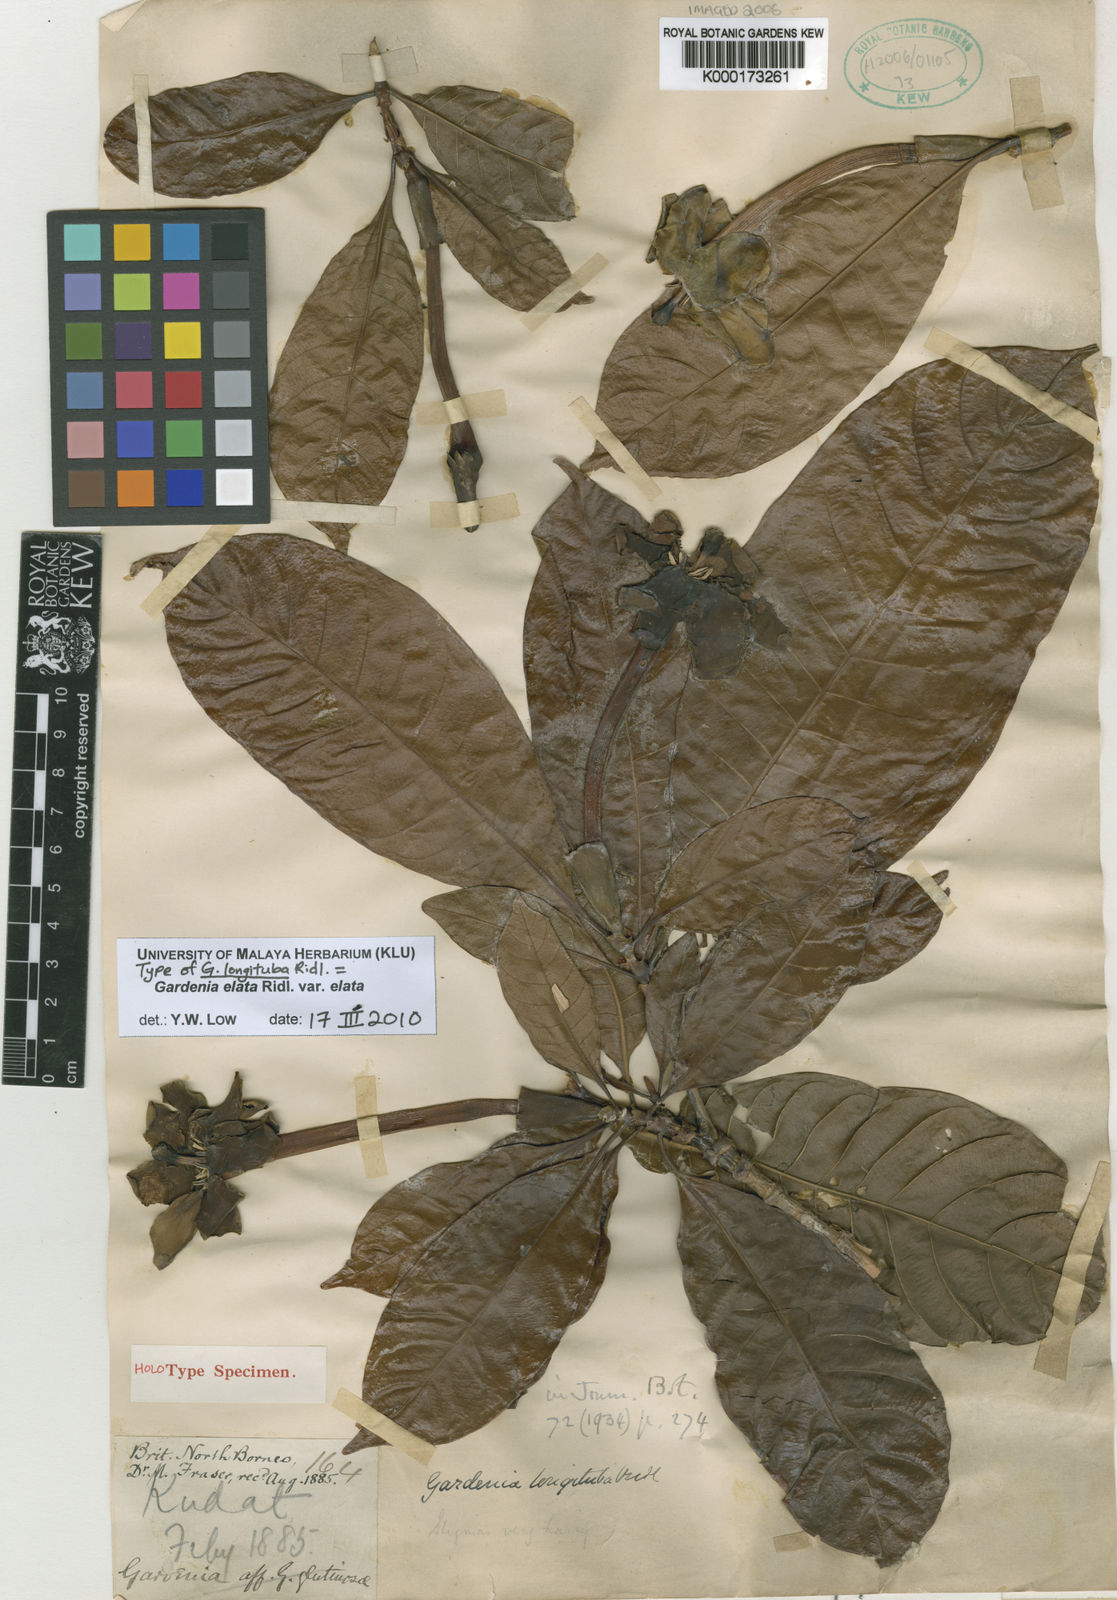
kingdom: Plantae
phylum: Tracheophyta
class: Magnoliopsida
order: Gentianales
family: Rubiaceae
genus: Gardenia
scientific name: Gardenia elata
